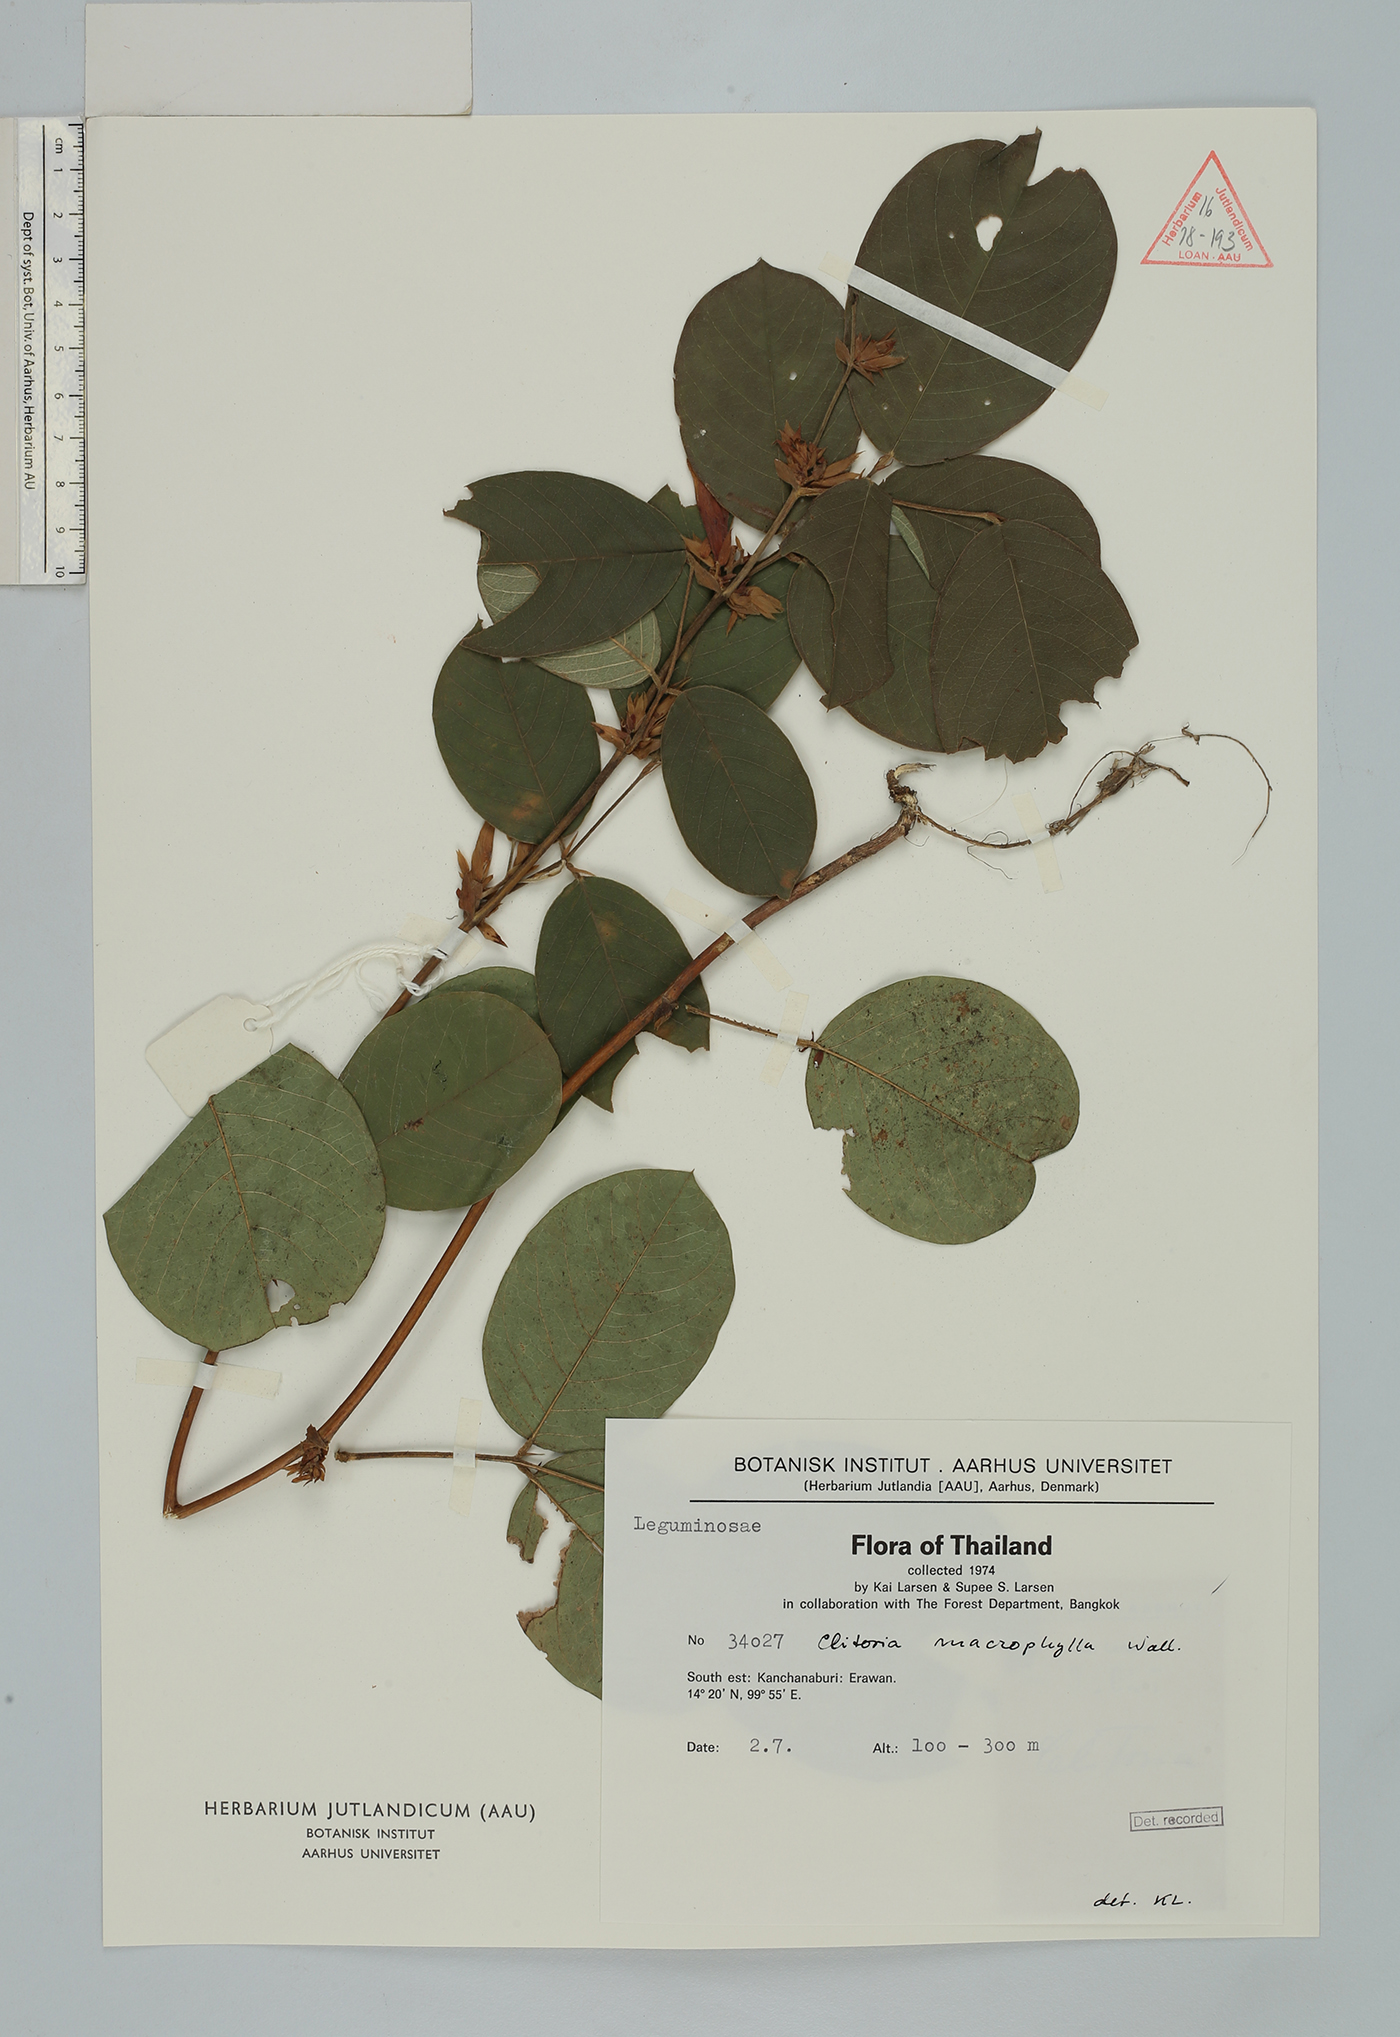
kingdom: Plantae
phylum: Tracheophyta
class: Magnoliopsida
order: Fabales
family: Fabaceae
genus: Clitoria
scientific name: Clitoria macrophylla
